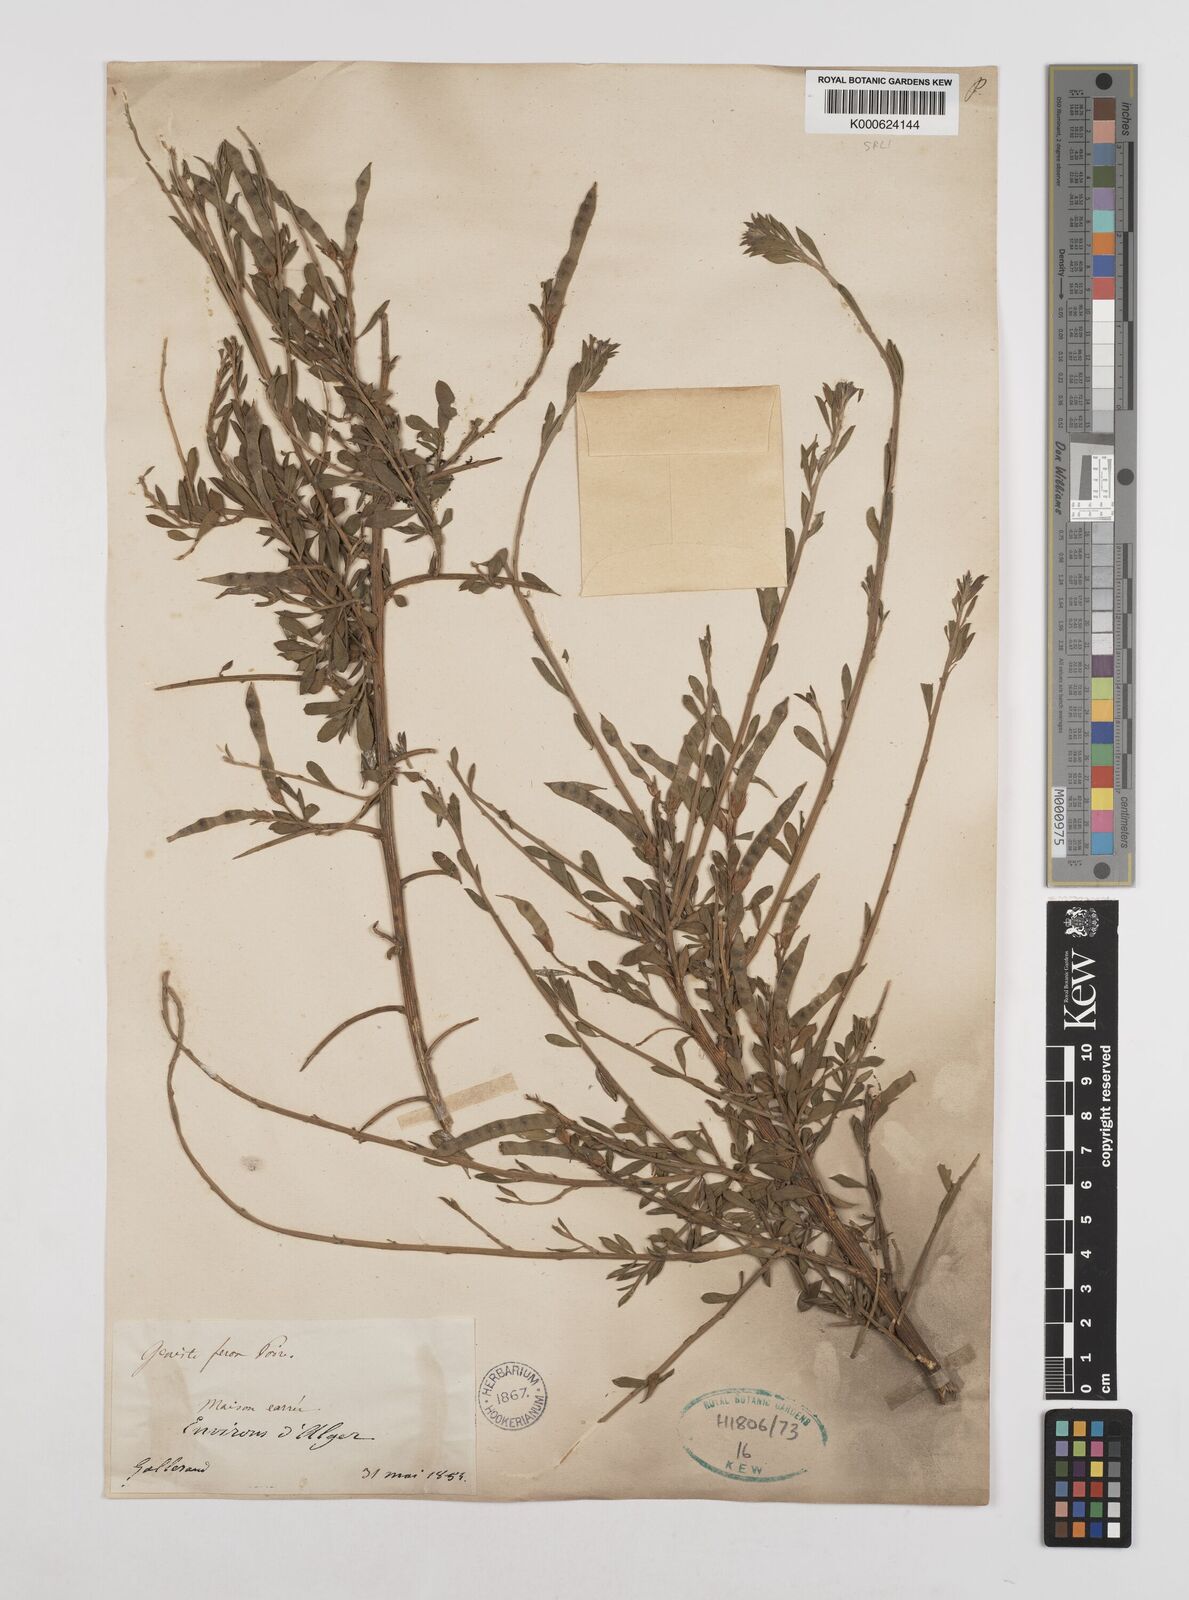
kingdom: Plantae
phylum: Tracheophyta
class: Magnoliopsida
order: Fabales
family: Fabaceae
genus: Genista
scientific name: Genista ferox
